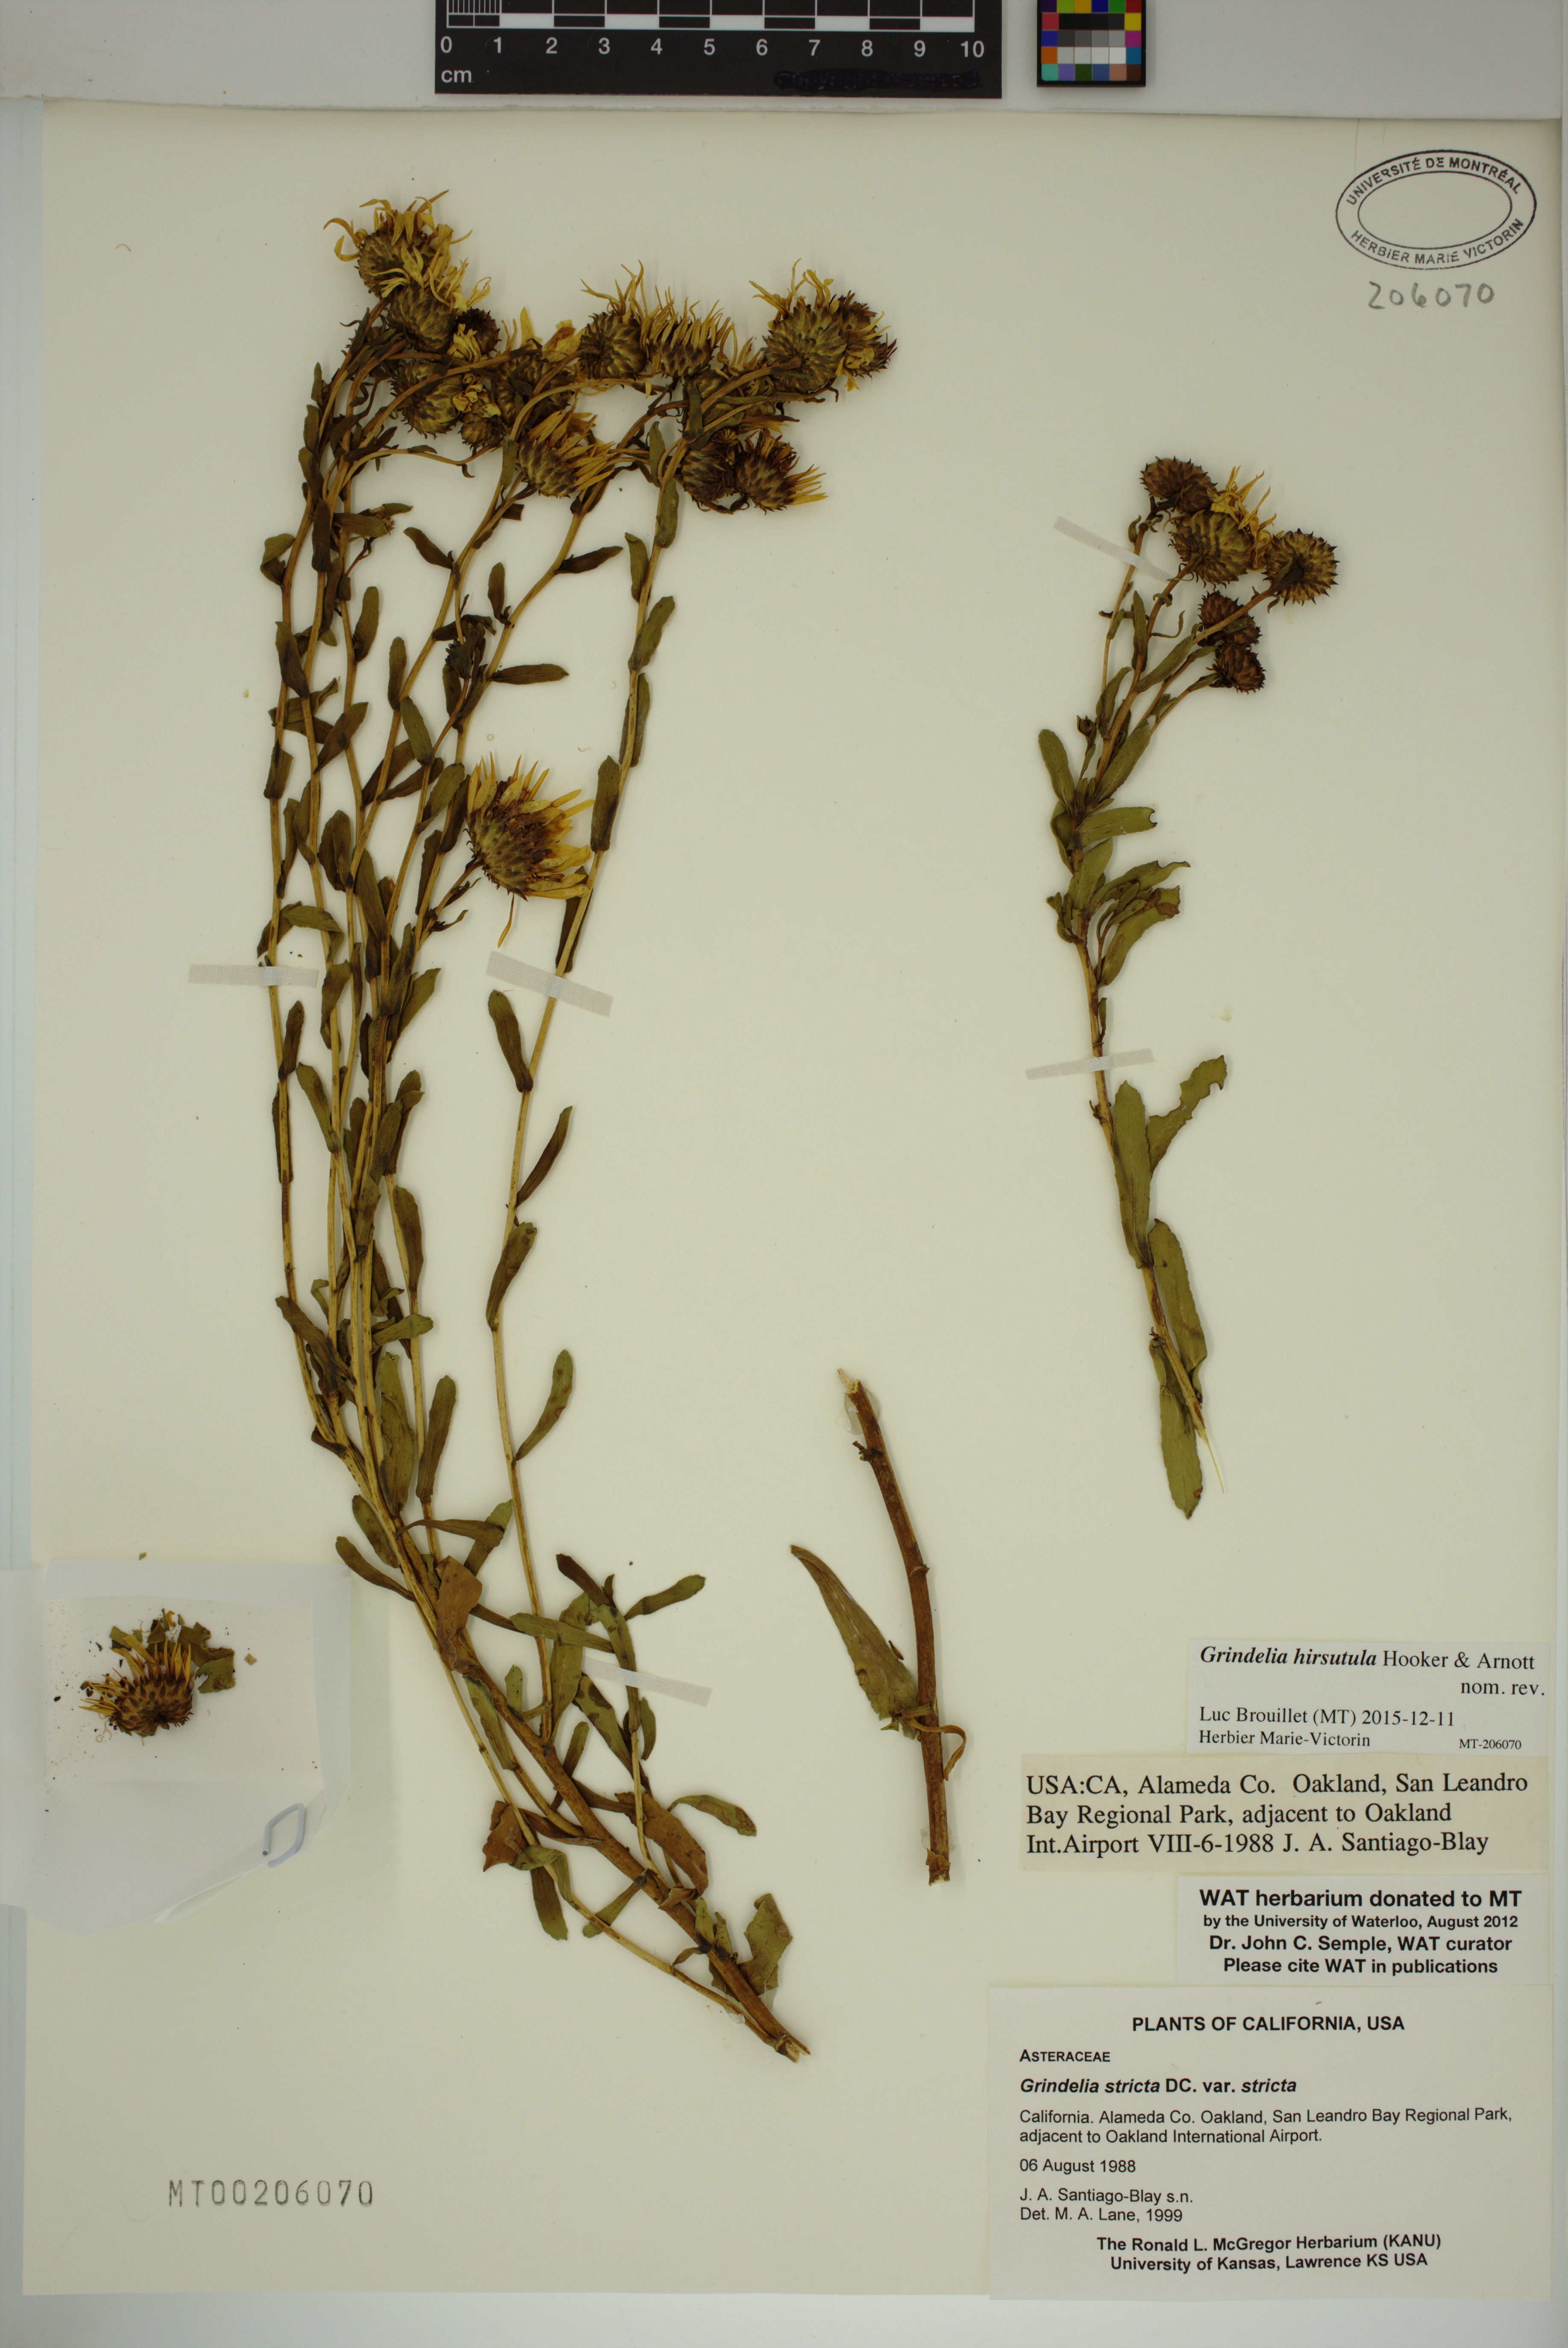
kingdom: Plantae
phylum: Tracheophyta
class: Magnoliopsida
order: Asterales
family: Asteraceae
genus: Grindelia
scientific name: Grindelia hirsutula
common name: Hairy gumweed
